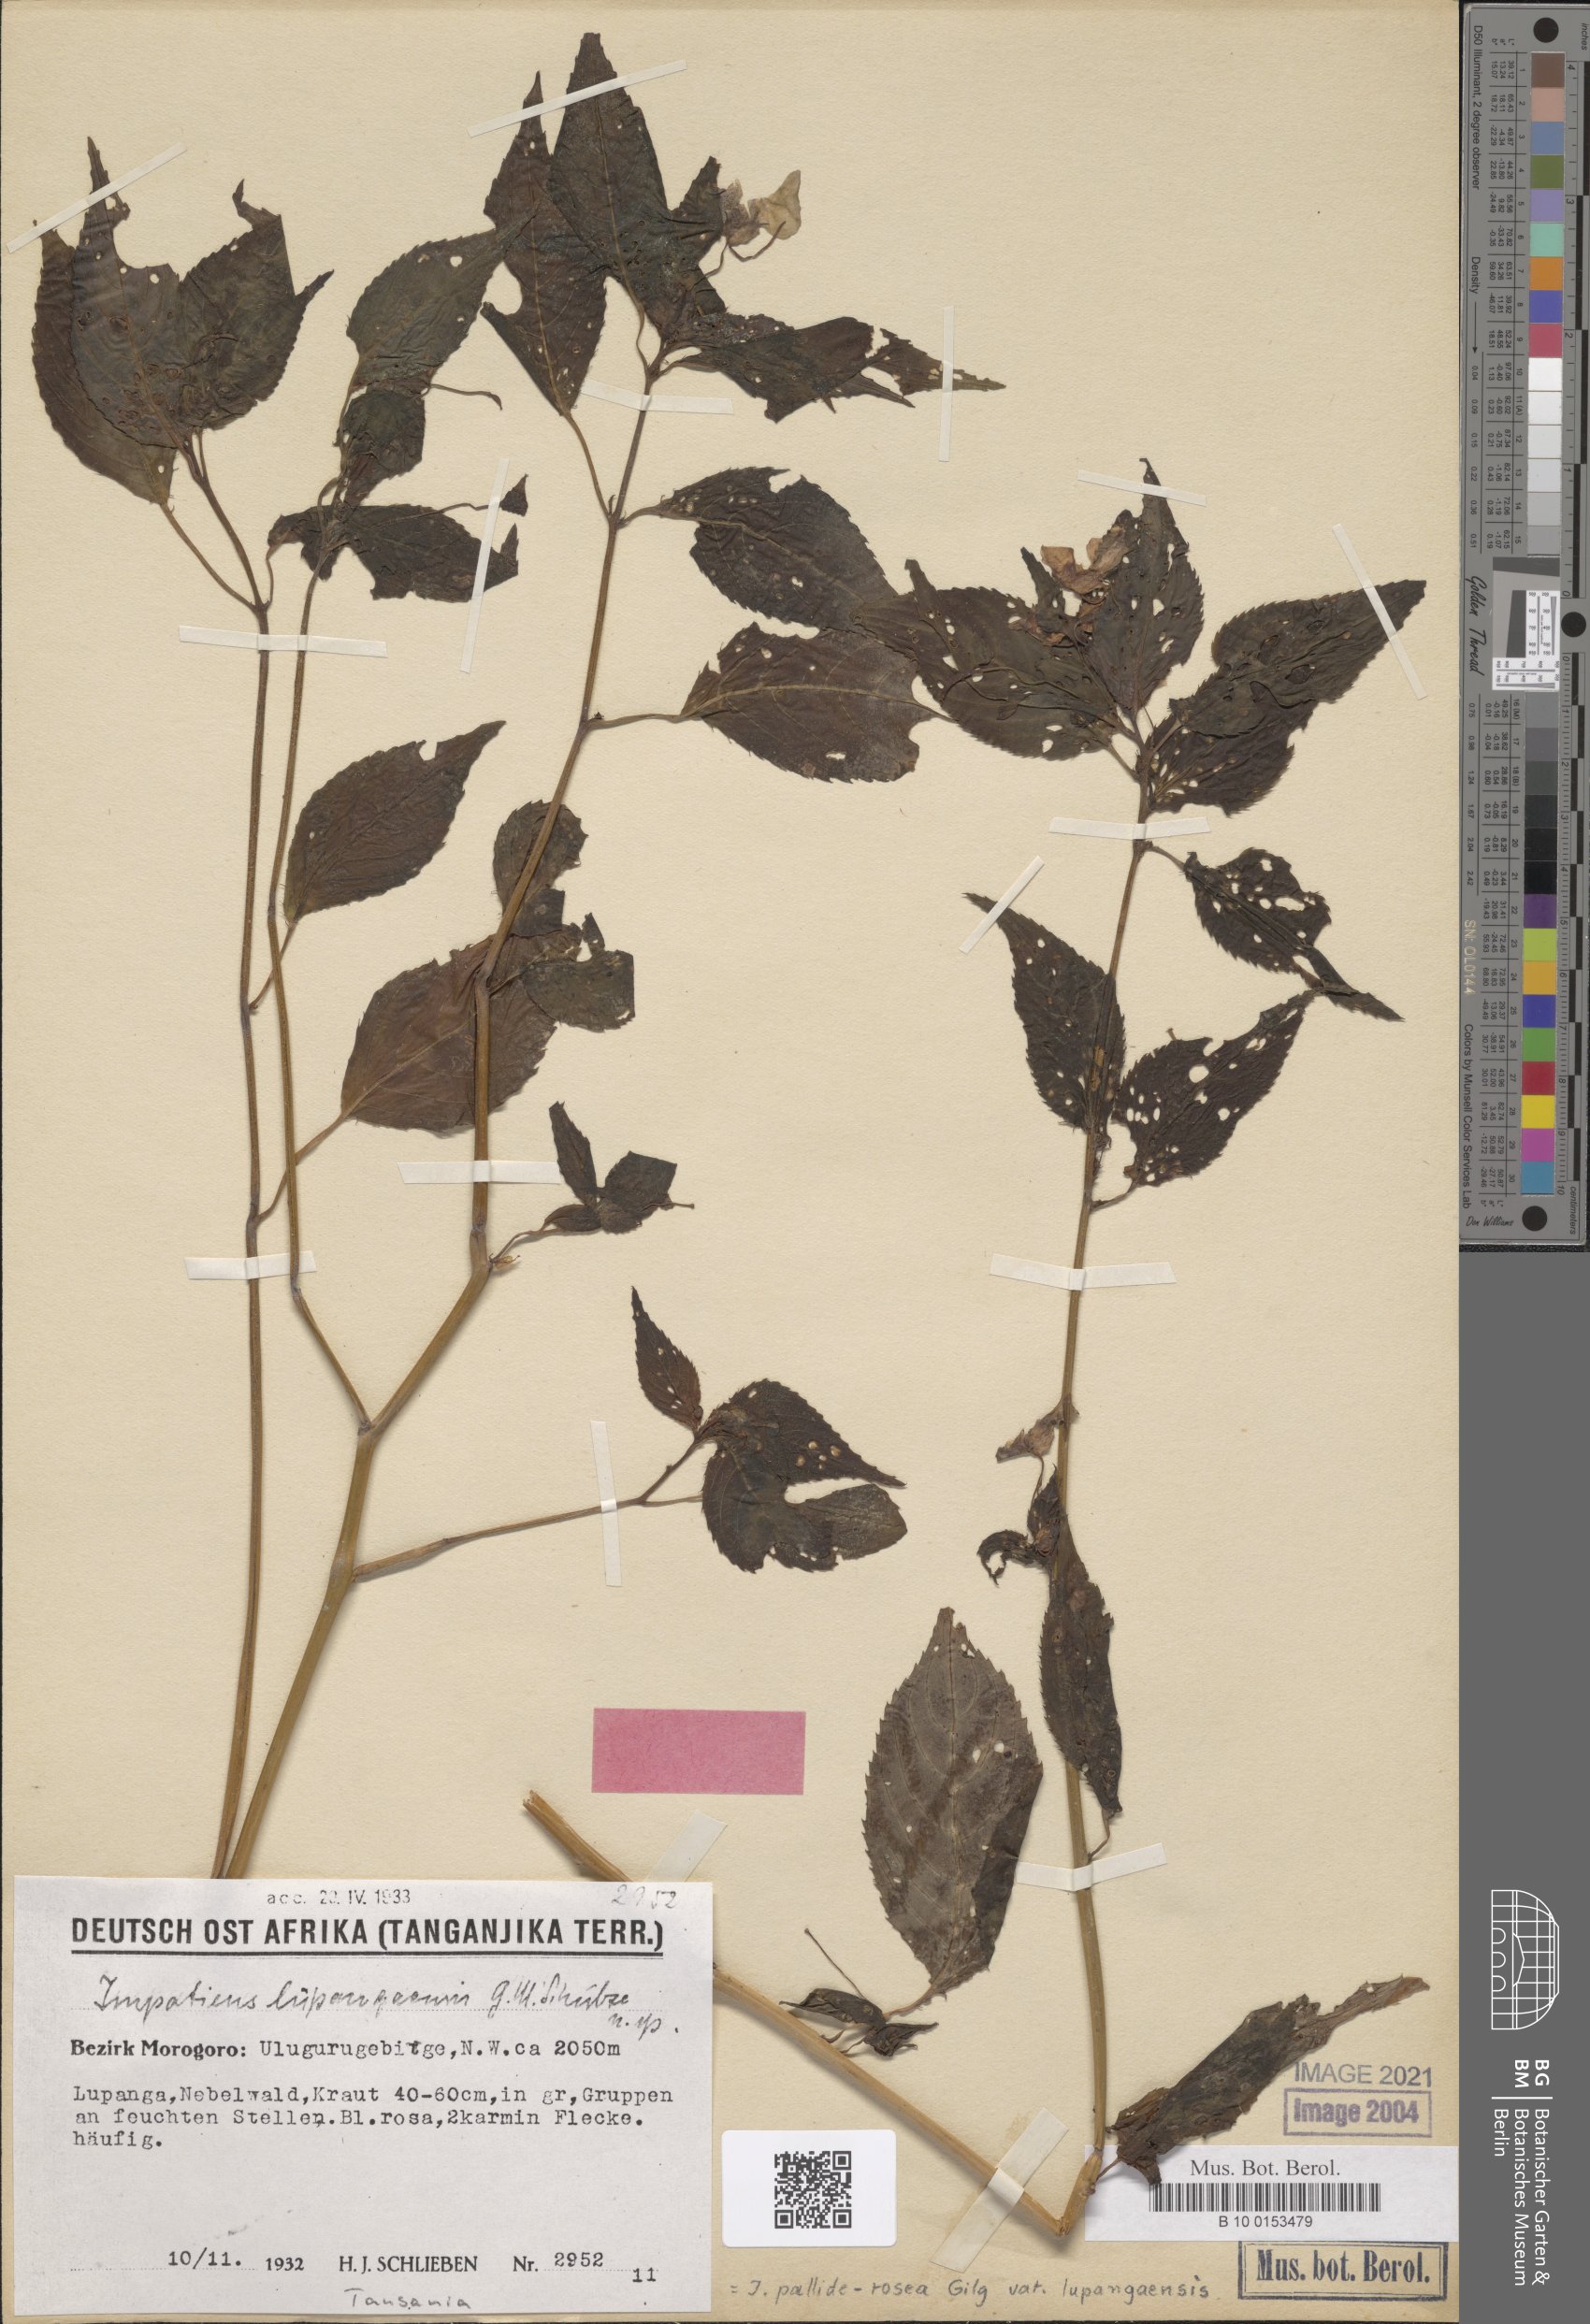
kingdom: Plantae
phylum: Tracheophyta
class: Magnoliopsida
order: Ericales
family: Balsaminaceae
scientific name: Balsaminaceae
